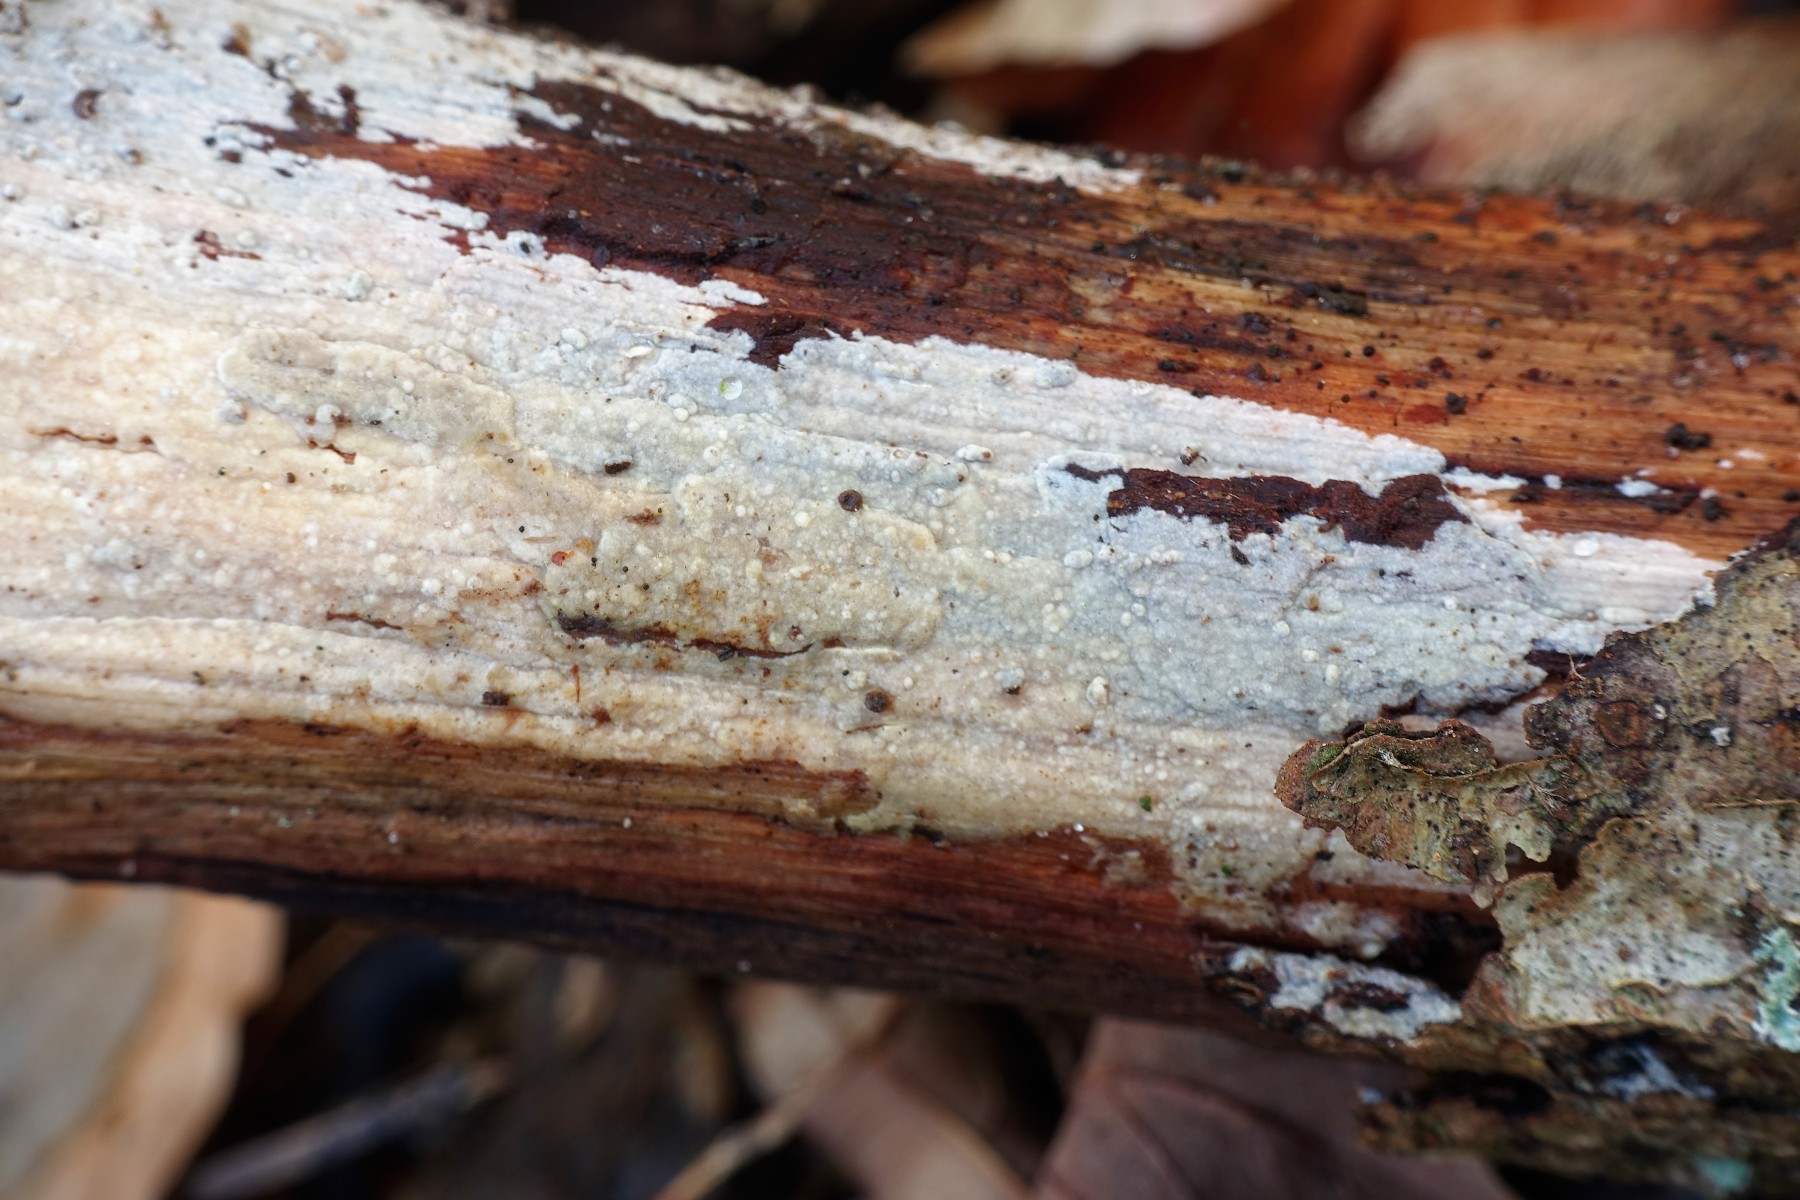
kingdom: Fungi
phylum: Basidiomycota
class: Agaricomycetes
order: Polyporales
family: Phanerochaetaceae
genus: Phanerochaete
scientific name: Phanerochaete velutina
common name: dunet randtråd
